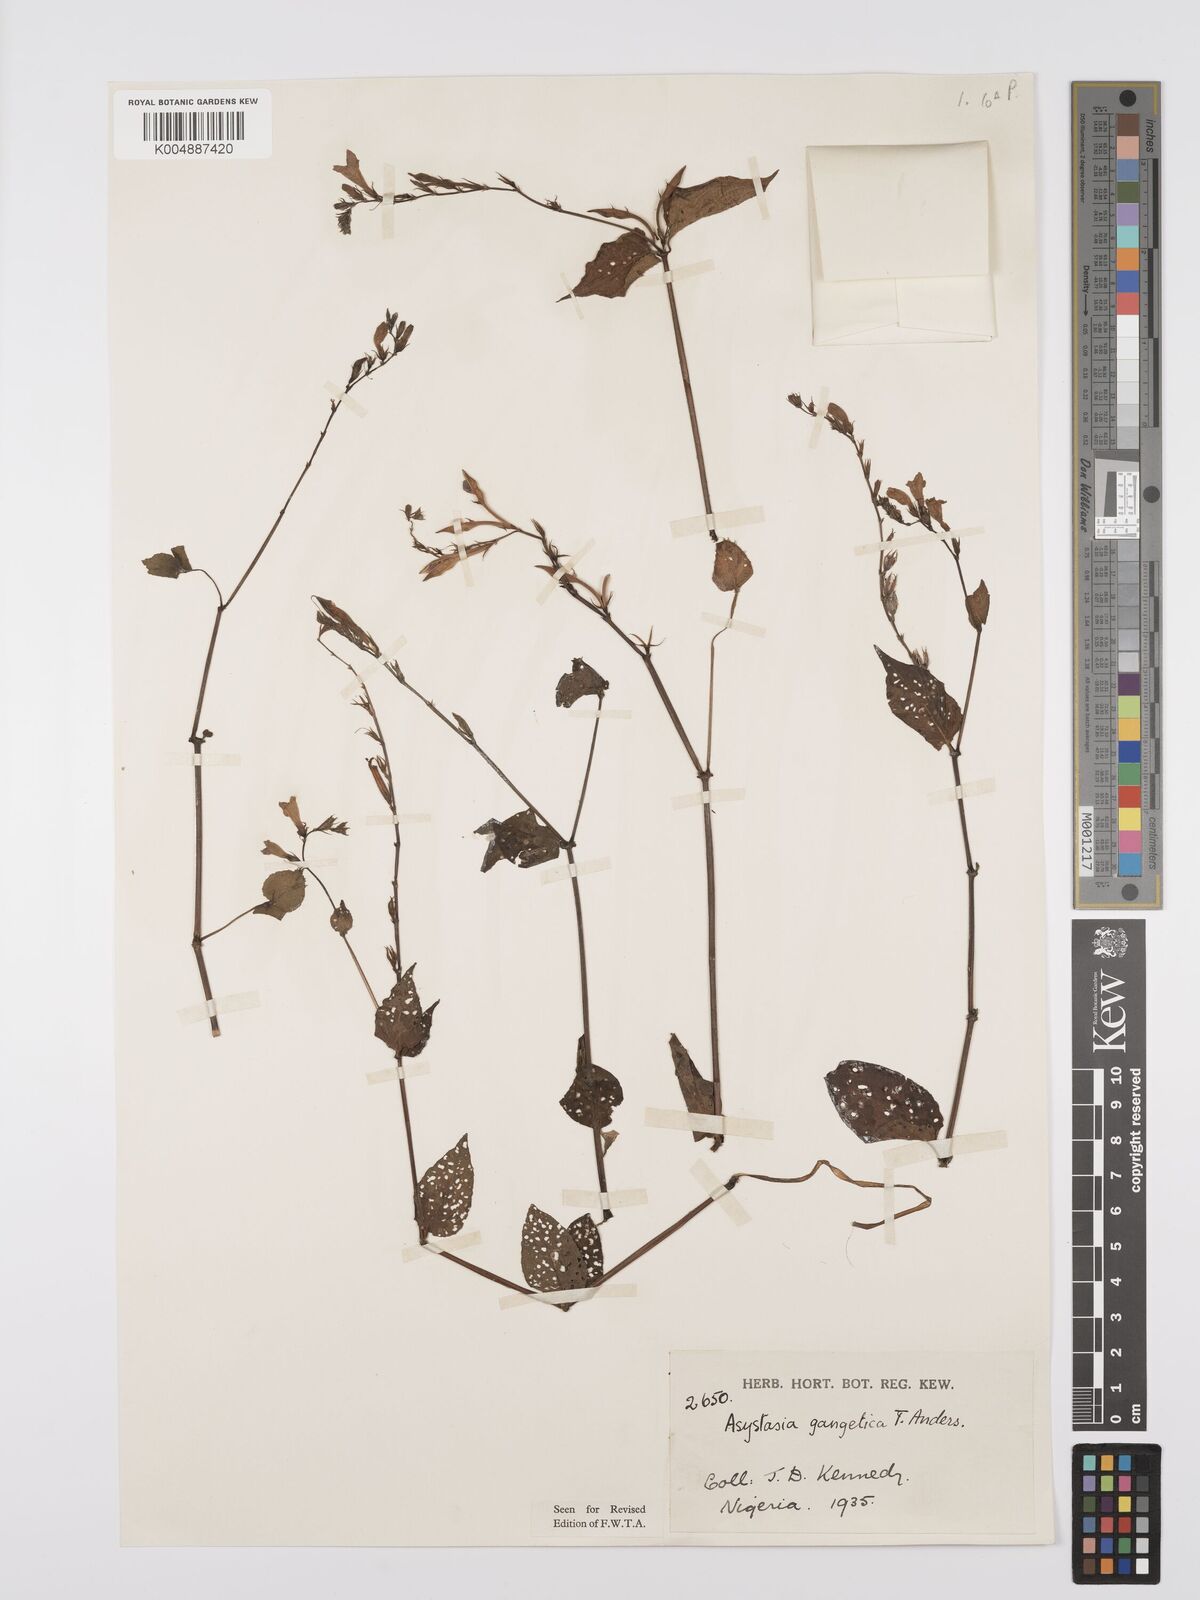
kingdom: Plantae
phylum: Tracheophyta
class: Magnoliopsida
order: Lamiales
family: Acanthaceae
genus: Asystasia
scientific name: Asystasia gangetica
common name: Chinese violet
